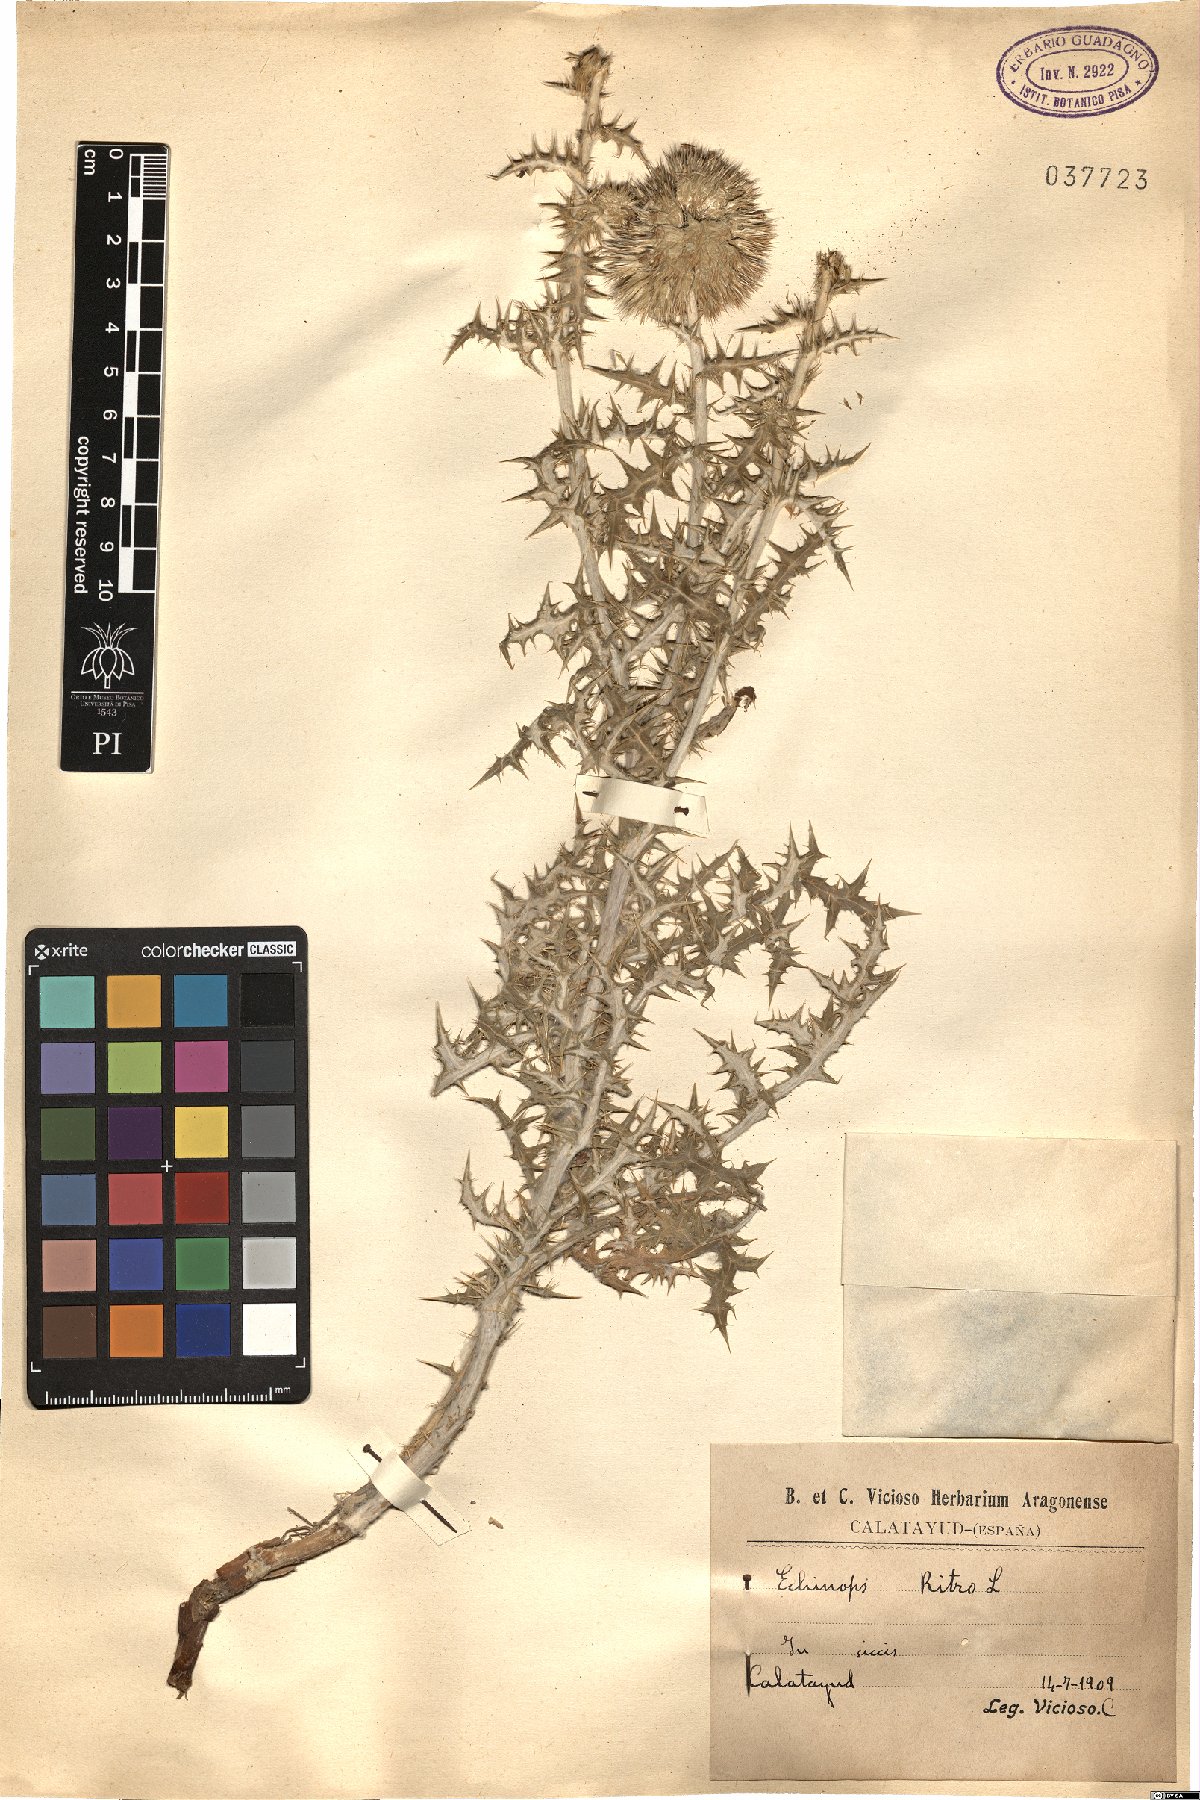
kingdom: Plantae
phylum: Tracheophyta
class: Magnoliopsida
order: Asterales
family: Asteraceae
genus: Echinops
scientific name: Echinops ritro
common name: Globe thistle
